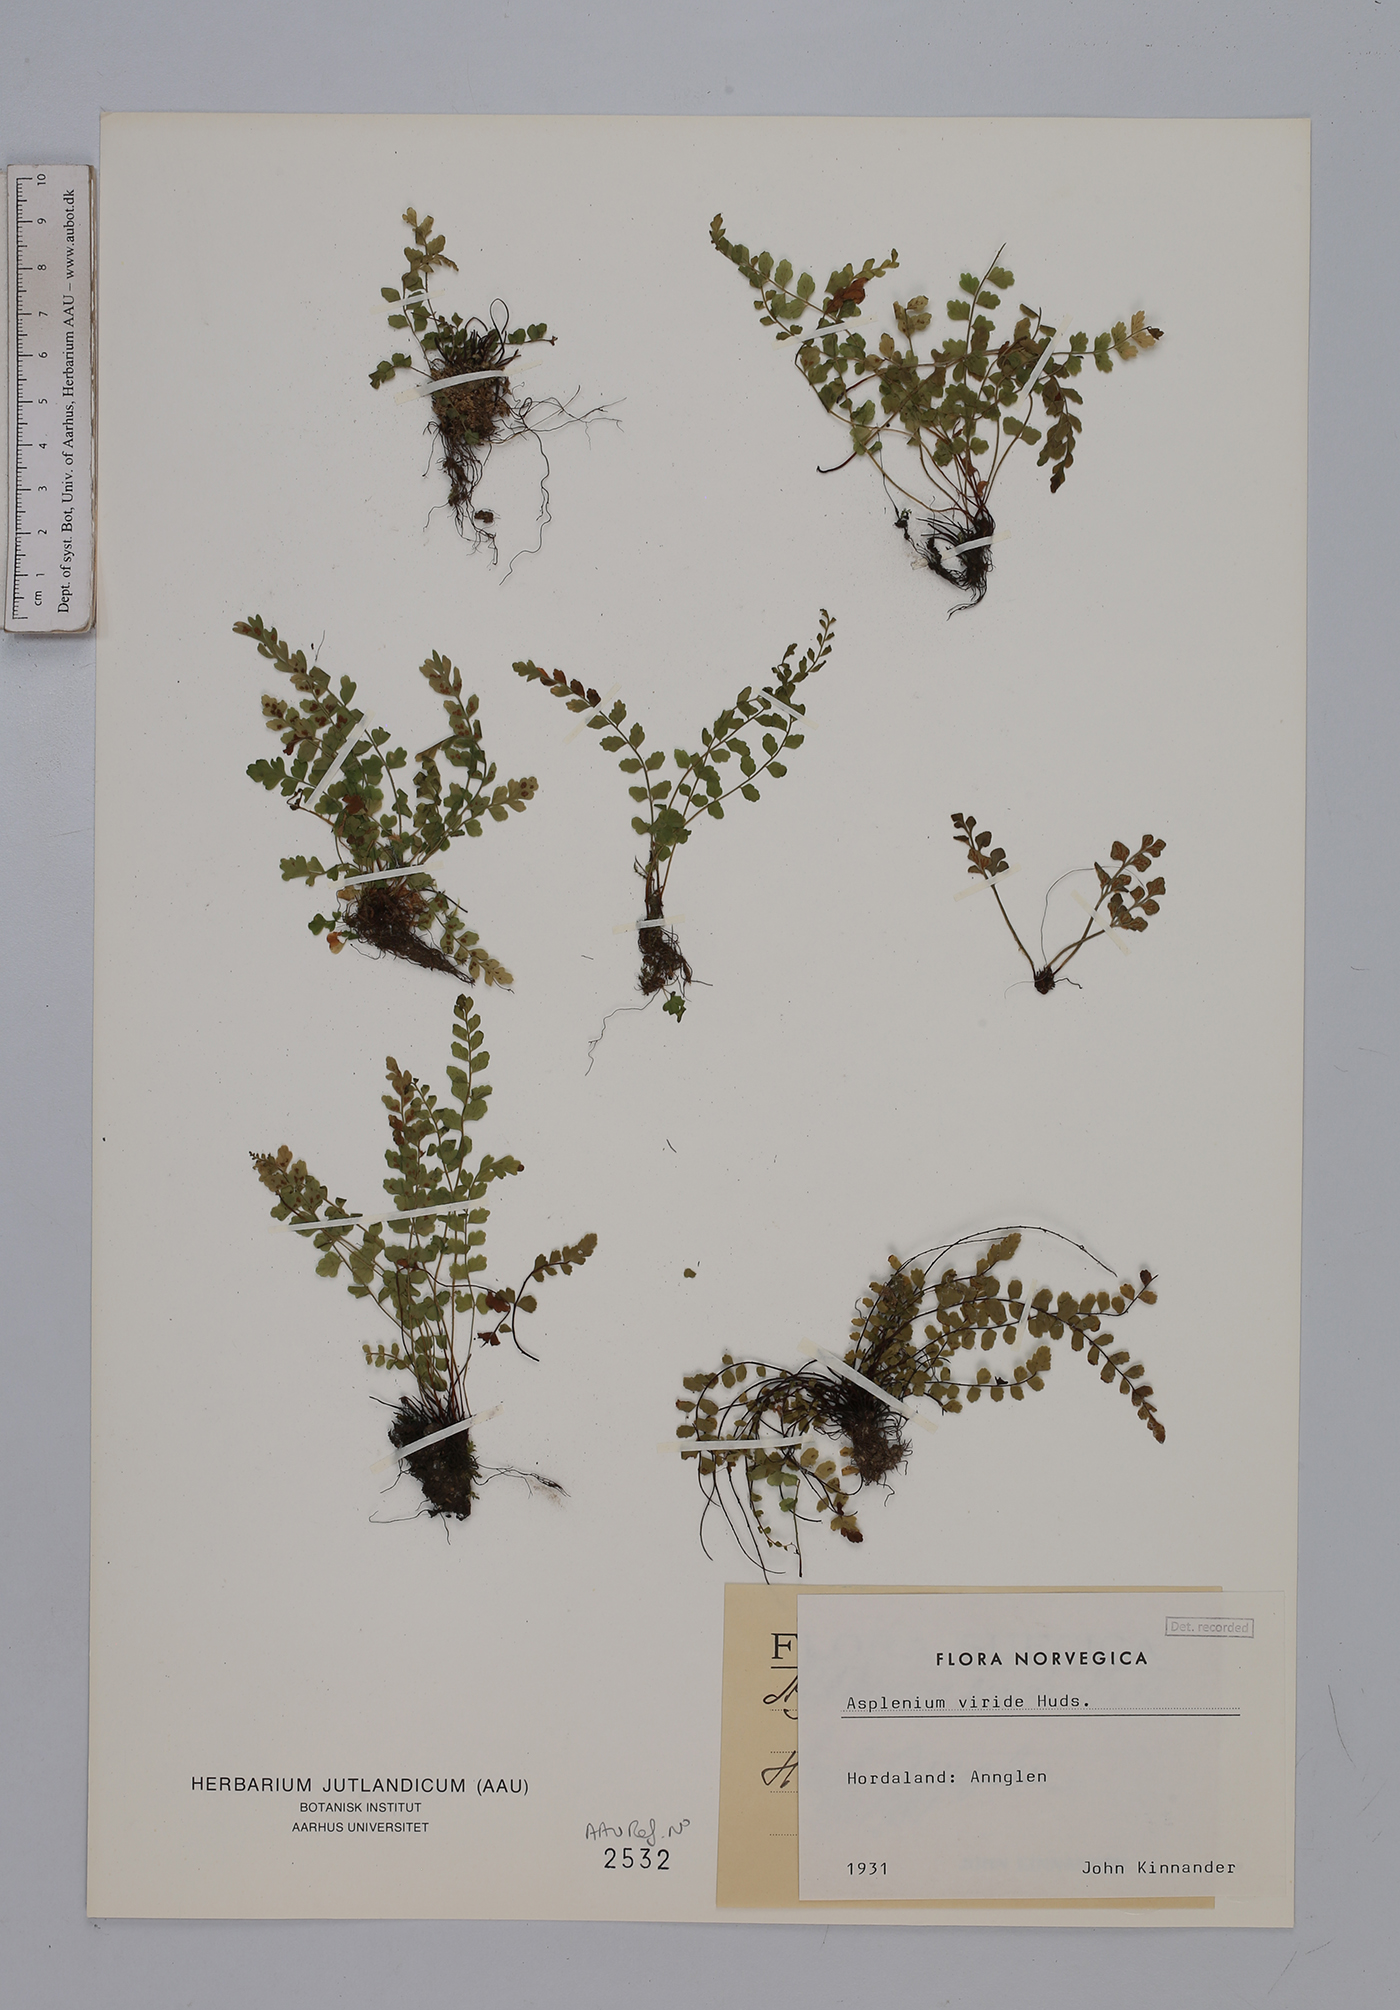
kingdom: Plantae
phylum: Tracheophyta
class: Polypodiopsida
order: Polypodiales
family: Aspleniaceae
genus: Asplenium
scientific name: Asplenium viride
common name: Green spleenwort
